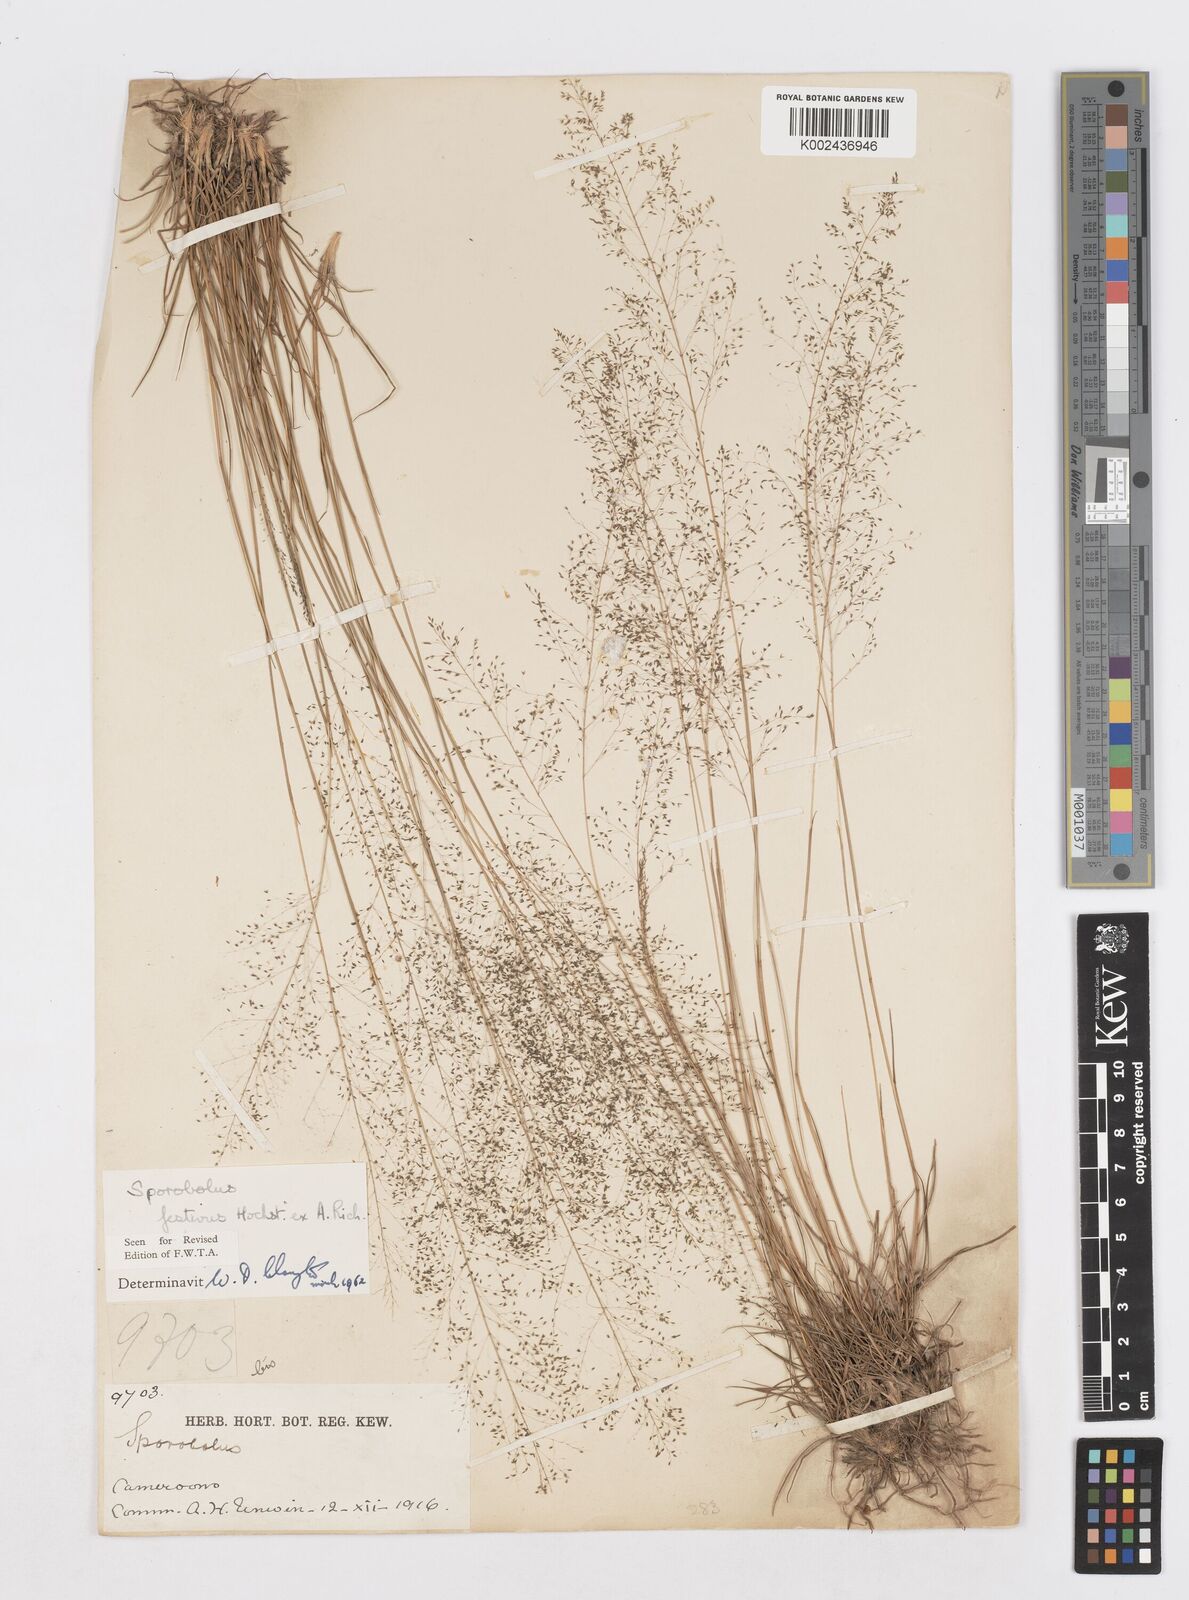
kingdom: Plantae
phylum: Tracheophyta
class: Liliopsida
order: Poales
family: Poaceae
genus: Sporobolus
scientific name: Sporobolus festivus
